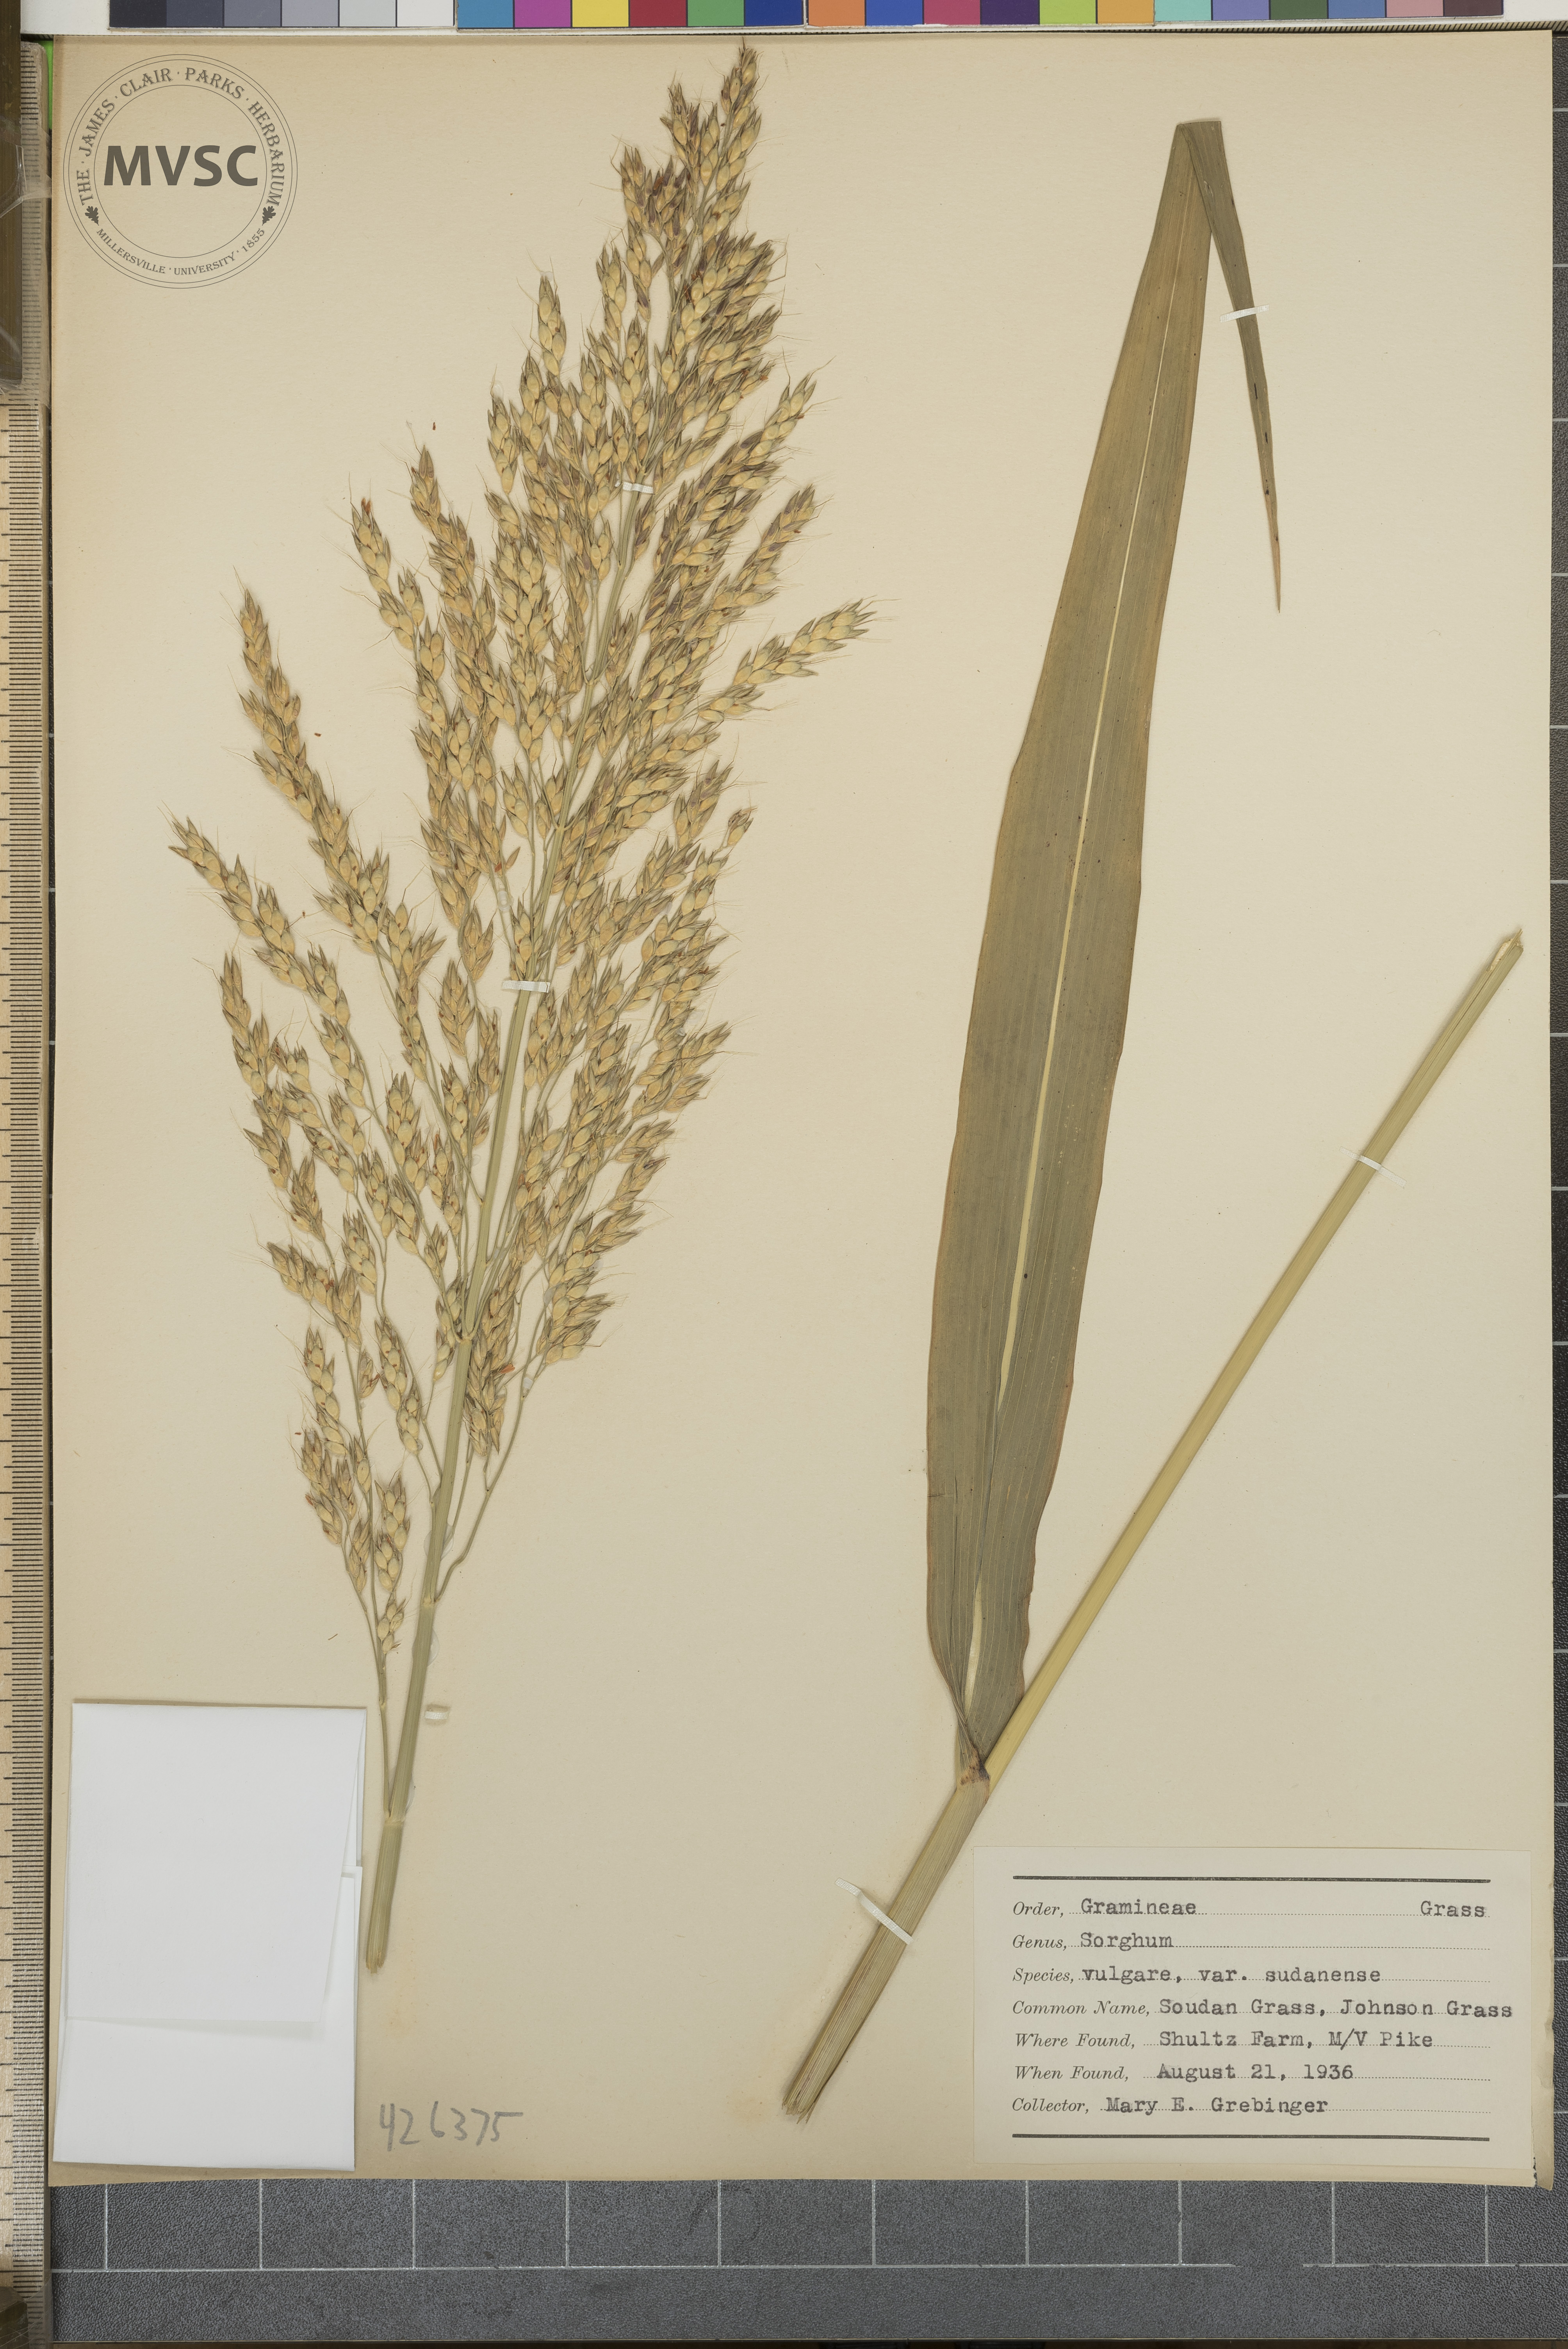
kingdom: Plantae
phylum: Tracheophyta
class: Liliopsida
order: Poales
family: Poaceae
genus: Sorghum
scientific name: Sorghum bicolor
